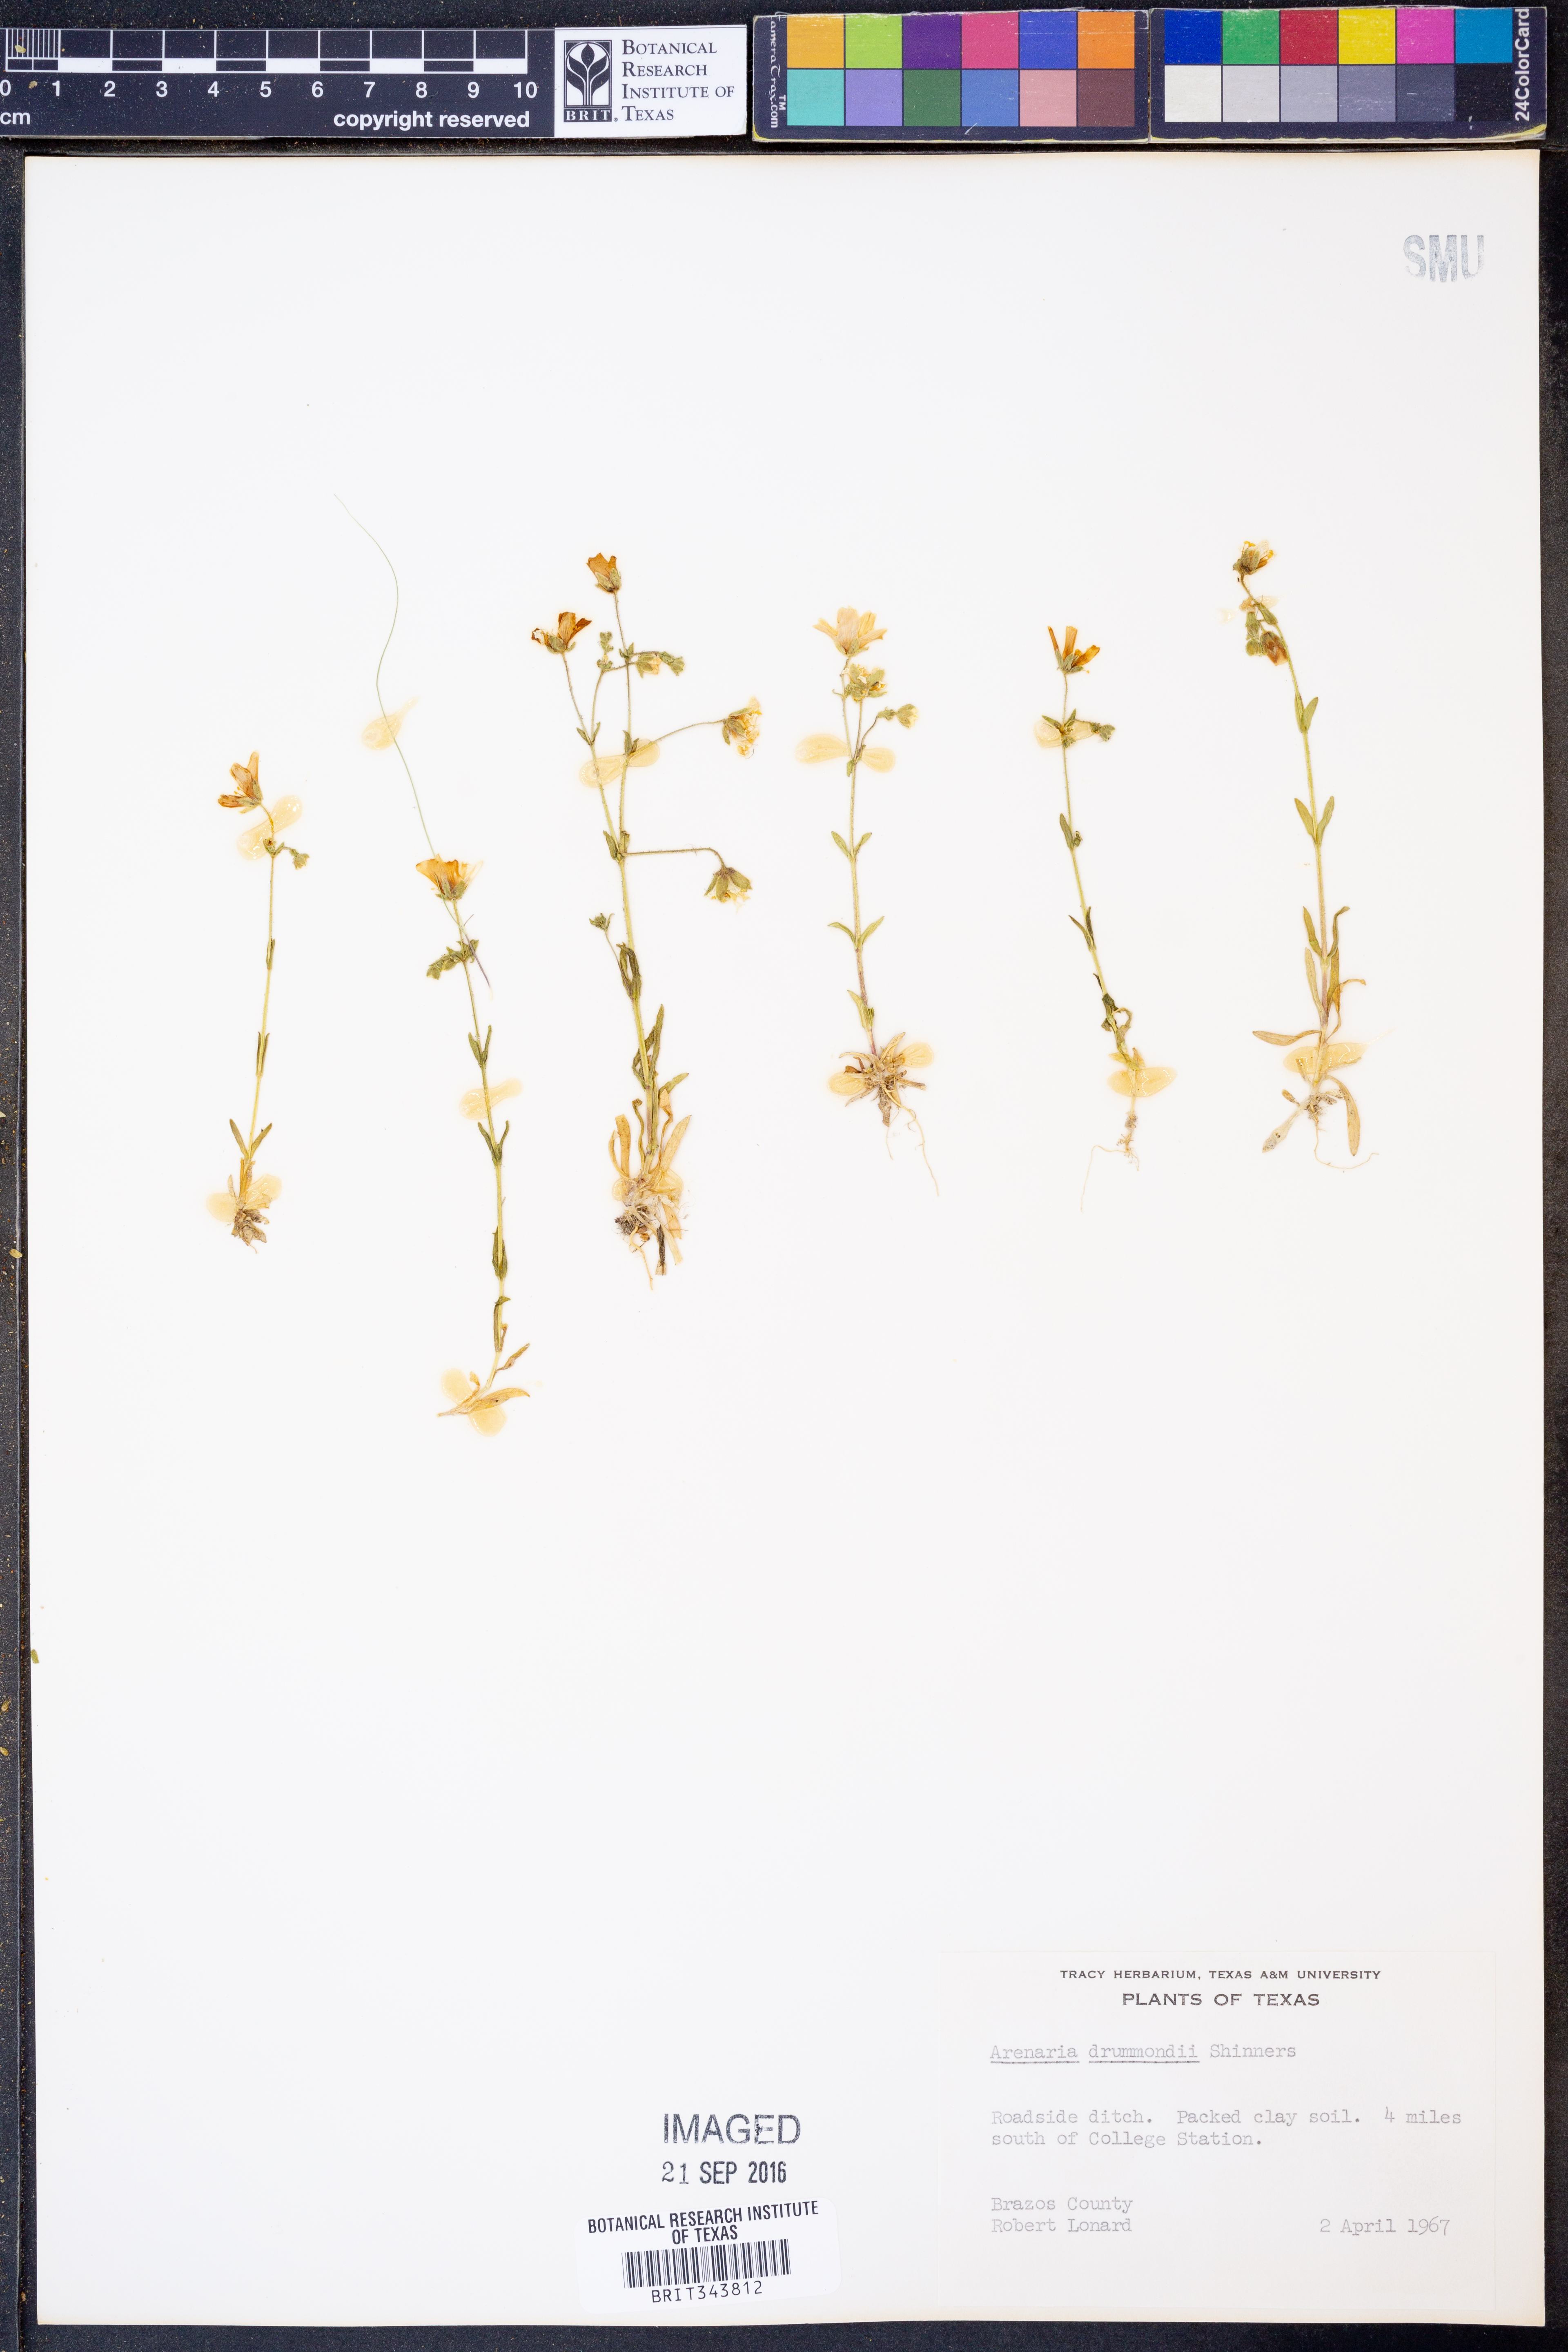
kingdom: Plantae
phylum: Tracheophyta
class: Magnoliopsida
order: Caryophyllales
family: Caryophyllaceae
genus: Geocarpon
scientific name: Geocarpon nuttallii
